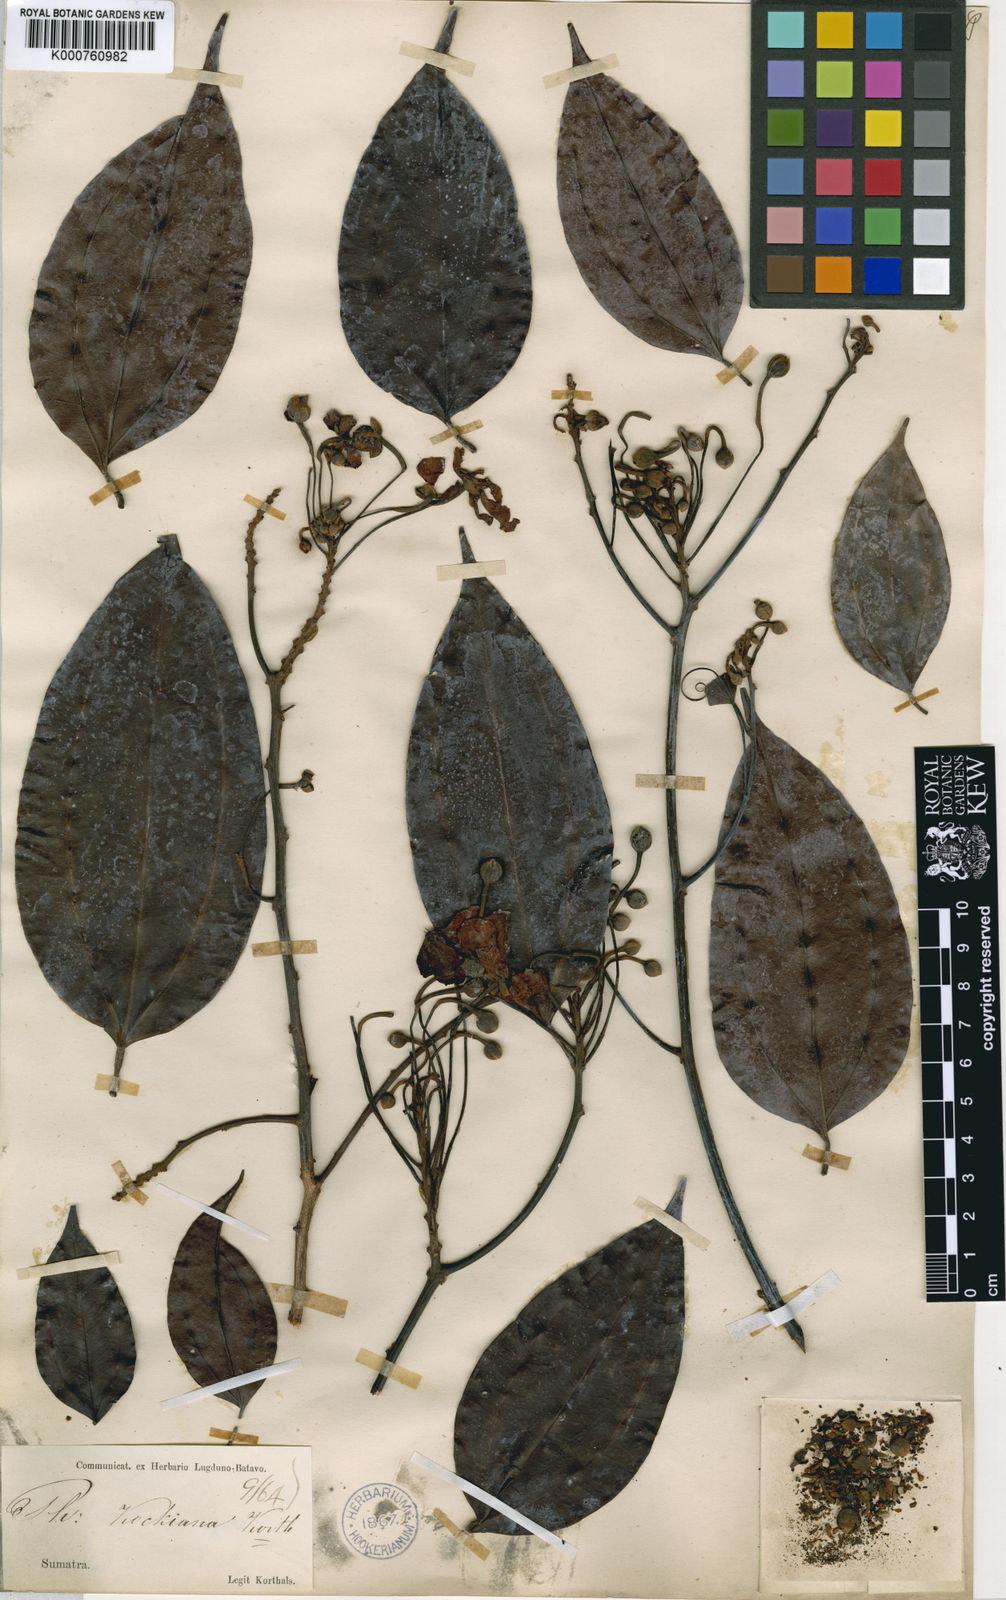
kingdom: Plantae
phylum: Tracheophyta
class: Magnoliopsida
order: Fabales
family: Fabaceae
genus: Phanera
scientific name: Phanera kockiana
